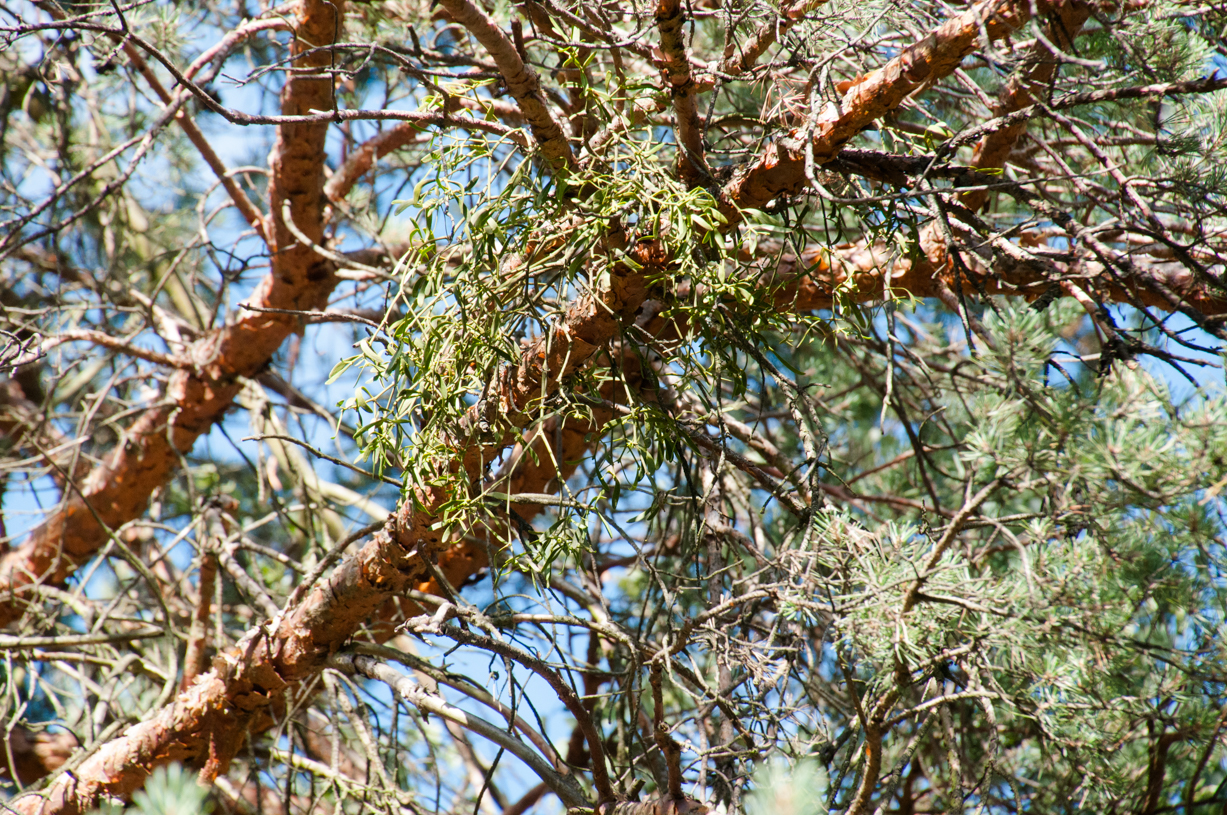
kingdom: Plantae
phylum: Tracheophyta
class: Magnoliopsida
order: Santalales
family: Viscaceae
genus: Viscum
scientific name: Viscum laxum
